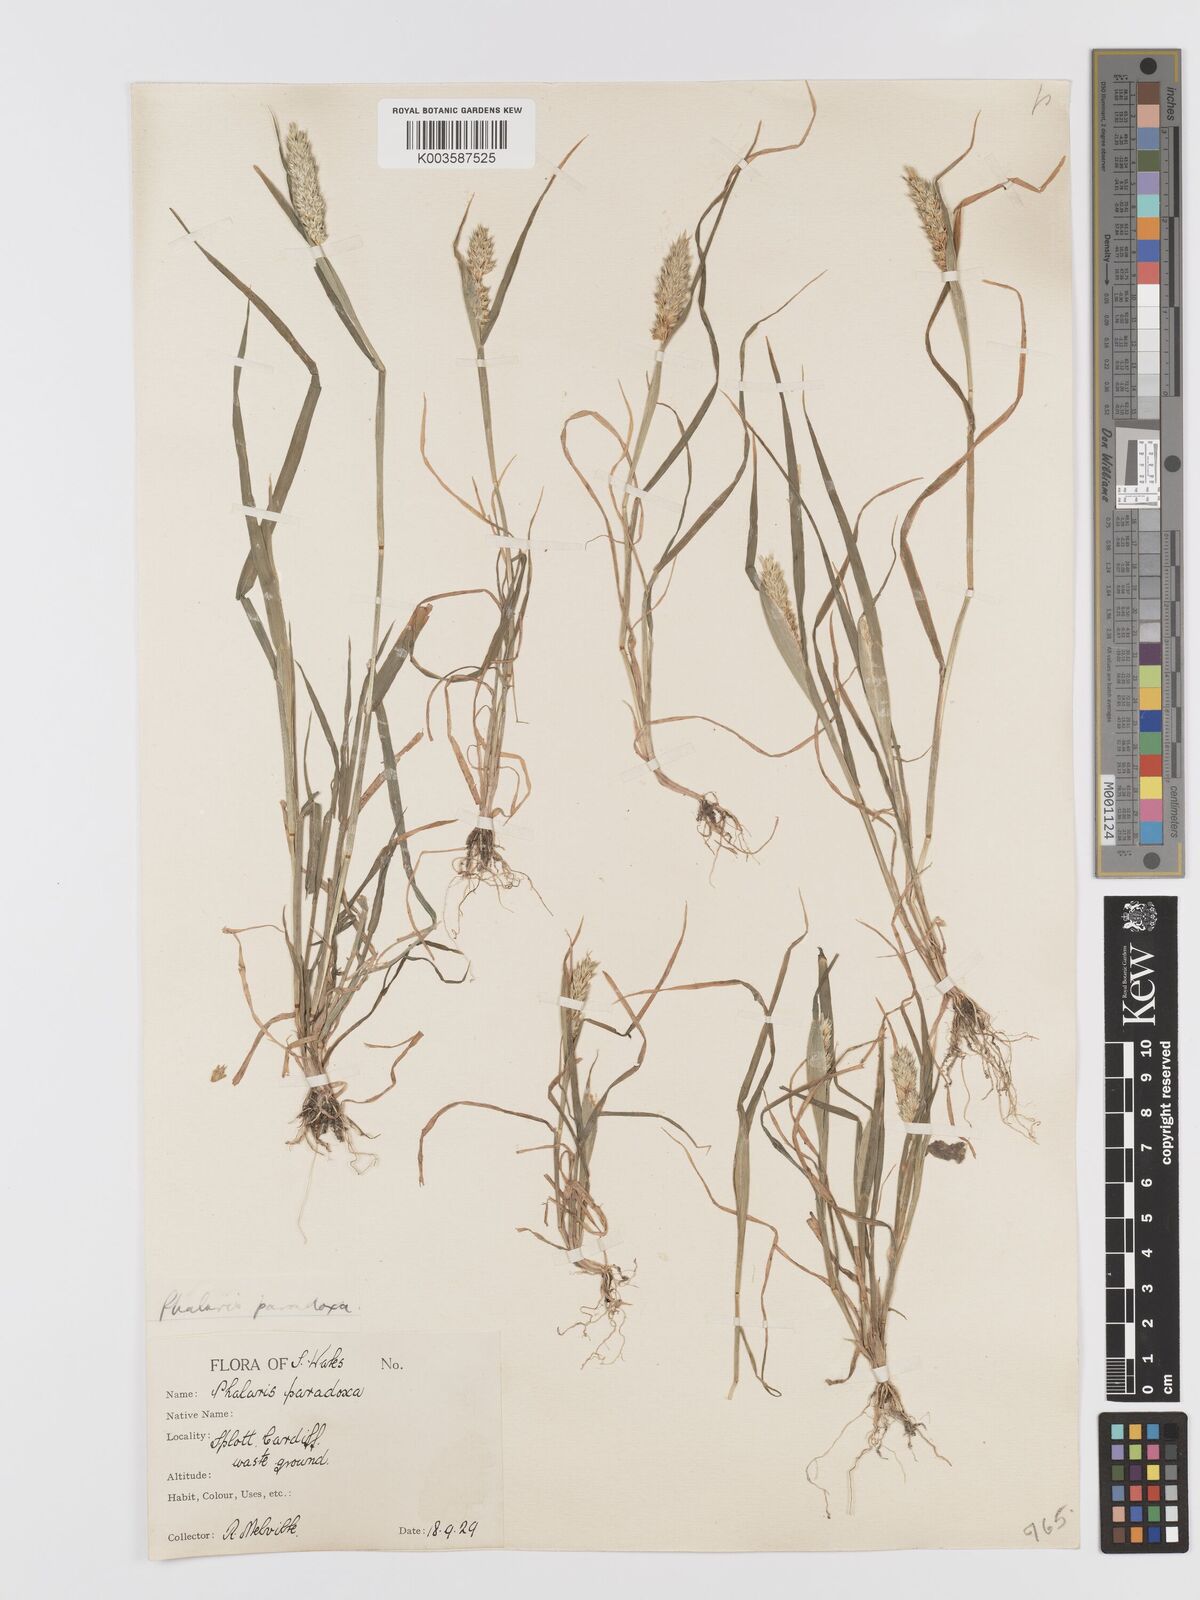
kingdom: Plantae
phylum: Tracheophyta
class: Liliopsida
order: Poales
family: Poaceae
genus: Phalaris
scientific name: Phalaris paradoxa
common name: Awned canary-grass
